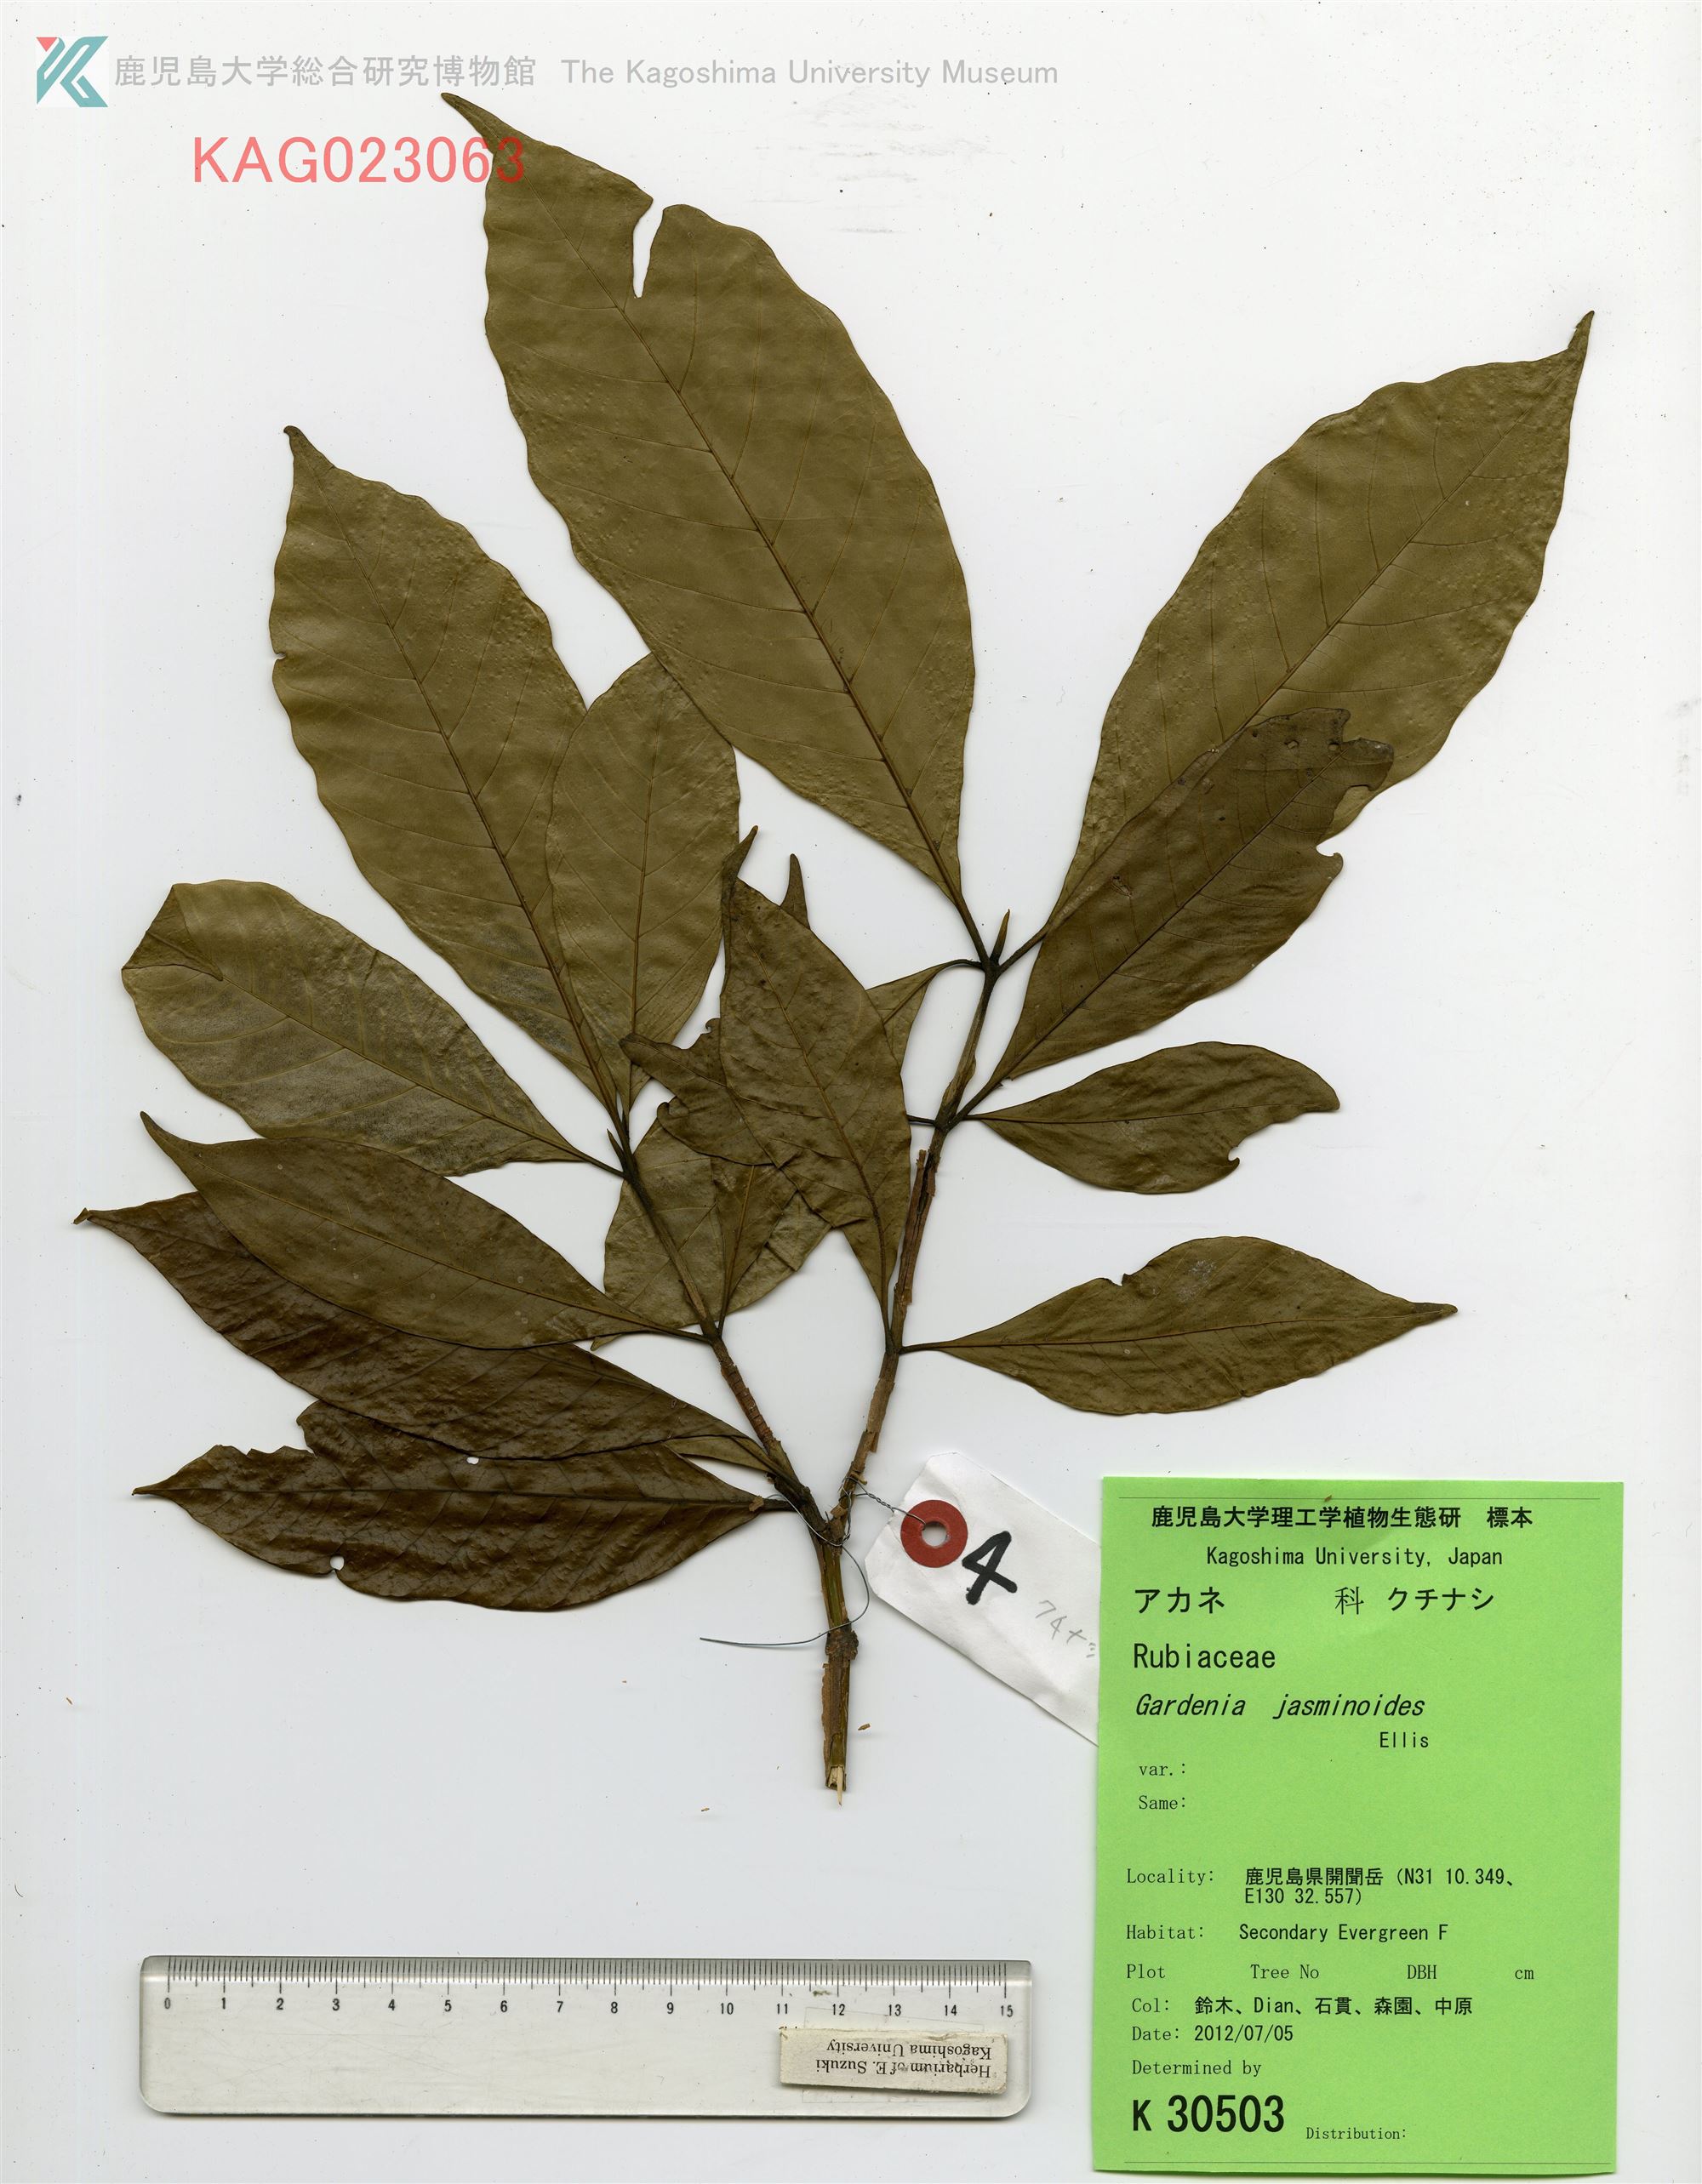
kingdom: Plantae
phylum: Tracheophyta
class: Magnoliopsida
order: Gentianales
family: Rubiaceae
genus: Gardenia
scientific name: Gardenia jasminoides
